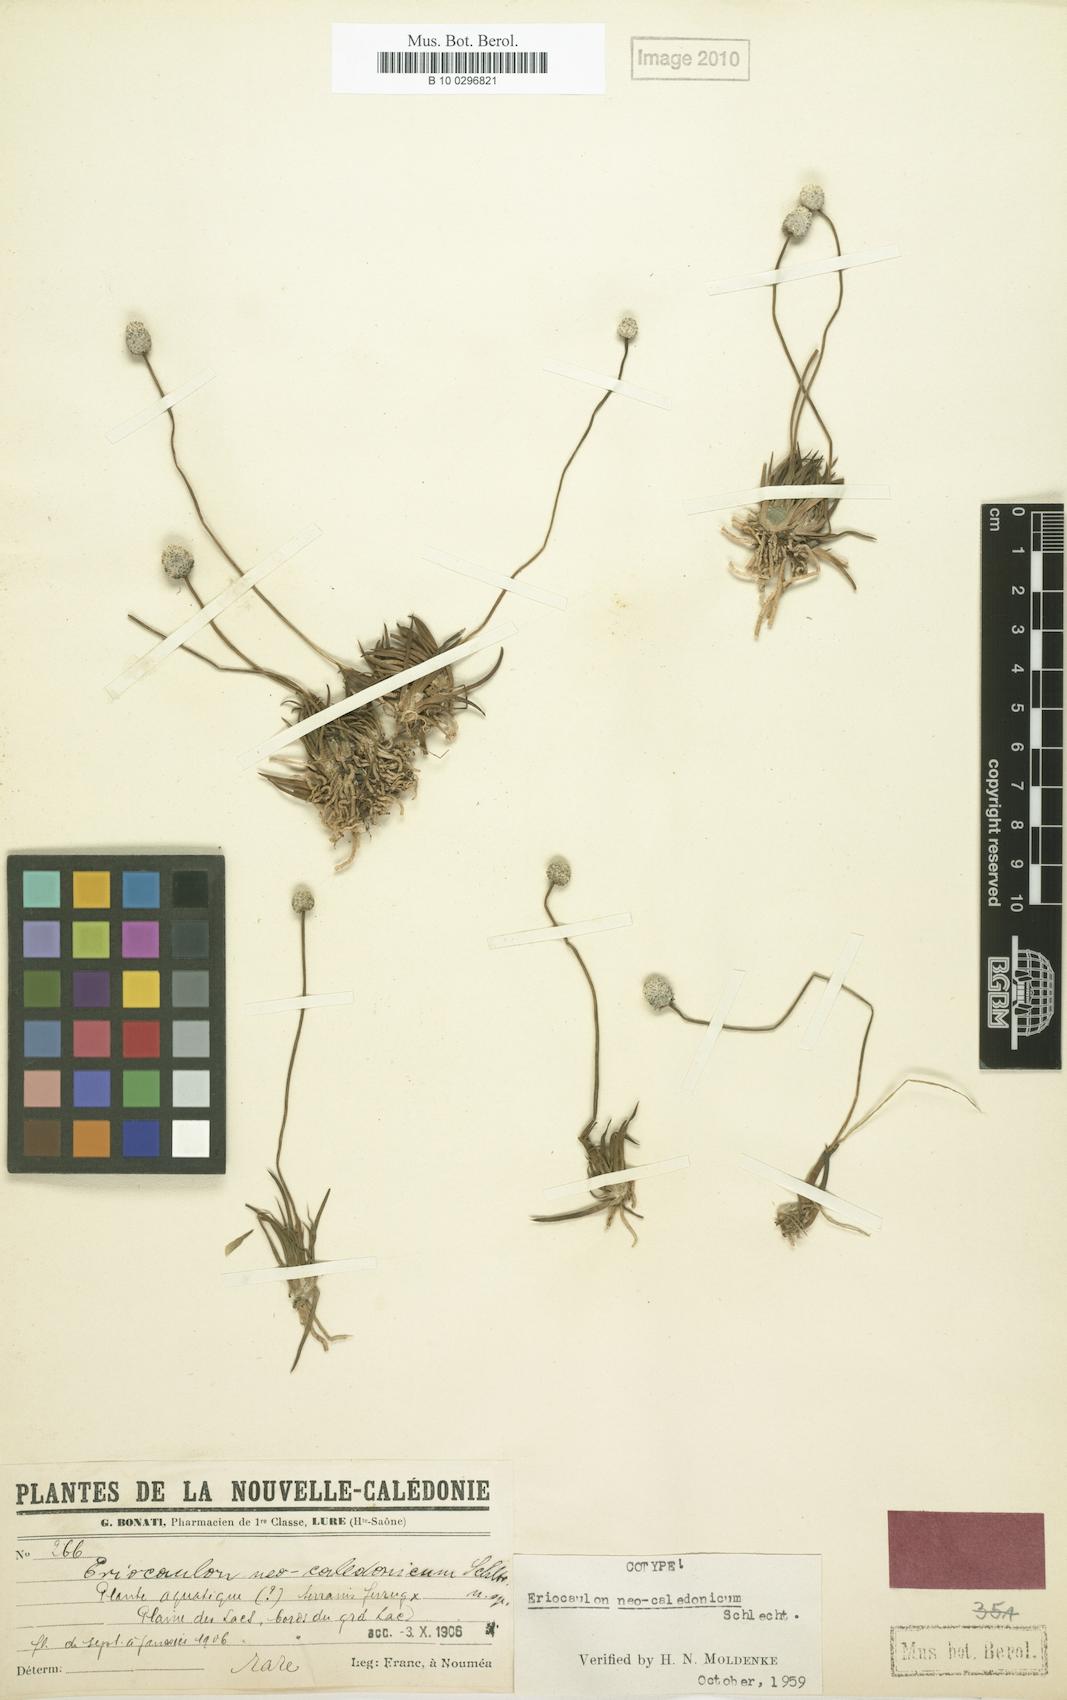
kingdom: Plantae
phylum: Tracheophyta
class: Liliopsida
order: Poales
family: Eriocaulaceae
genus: Eriocaulon
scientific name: Eriocaulon neocaledonicum
